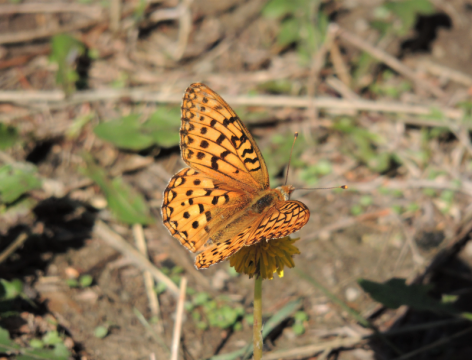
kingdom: Animalia
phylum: Arthropoda
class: Insecta
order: Lepidoptera
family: Nymphalidae
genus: Speyeria
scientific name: Speyeria egleis
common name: Great Basin Fritillary
